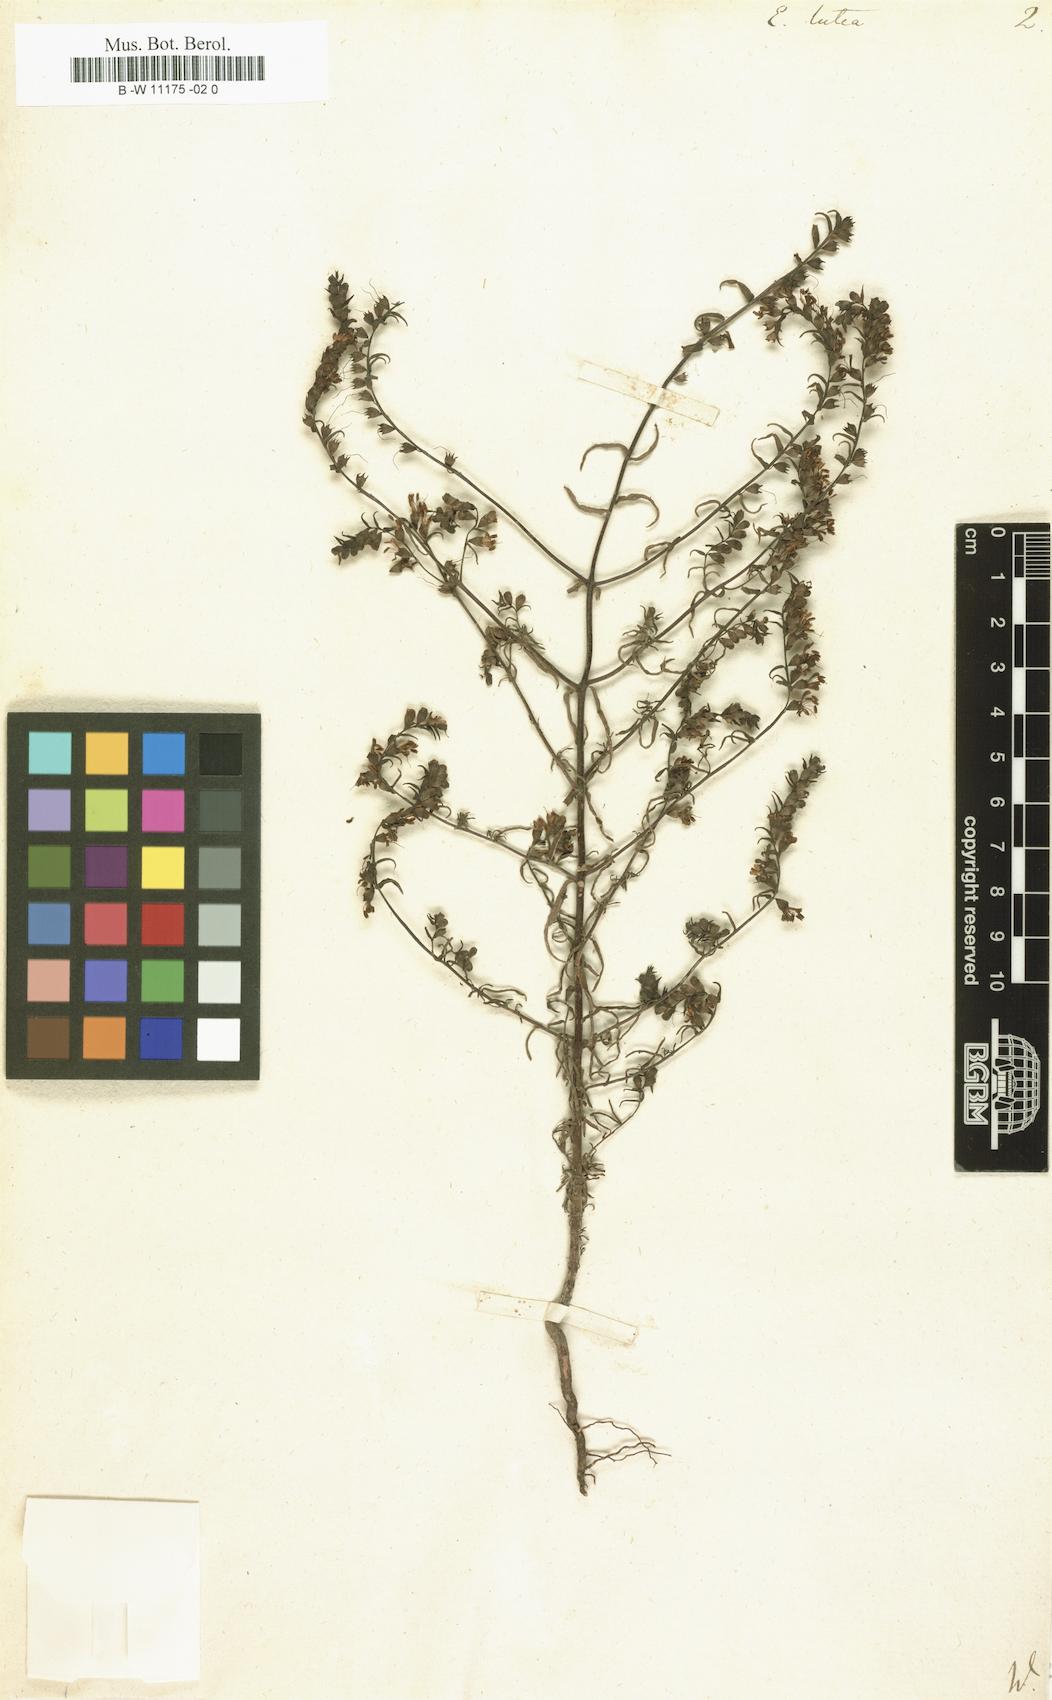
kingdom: Plantae
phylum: Tracheophyta
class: Magnoliopsida
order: Lamiales
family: Orobanchaceae
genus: Odontites
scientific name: Odontites
